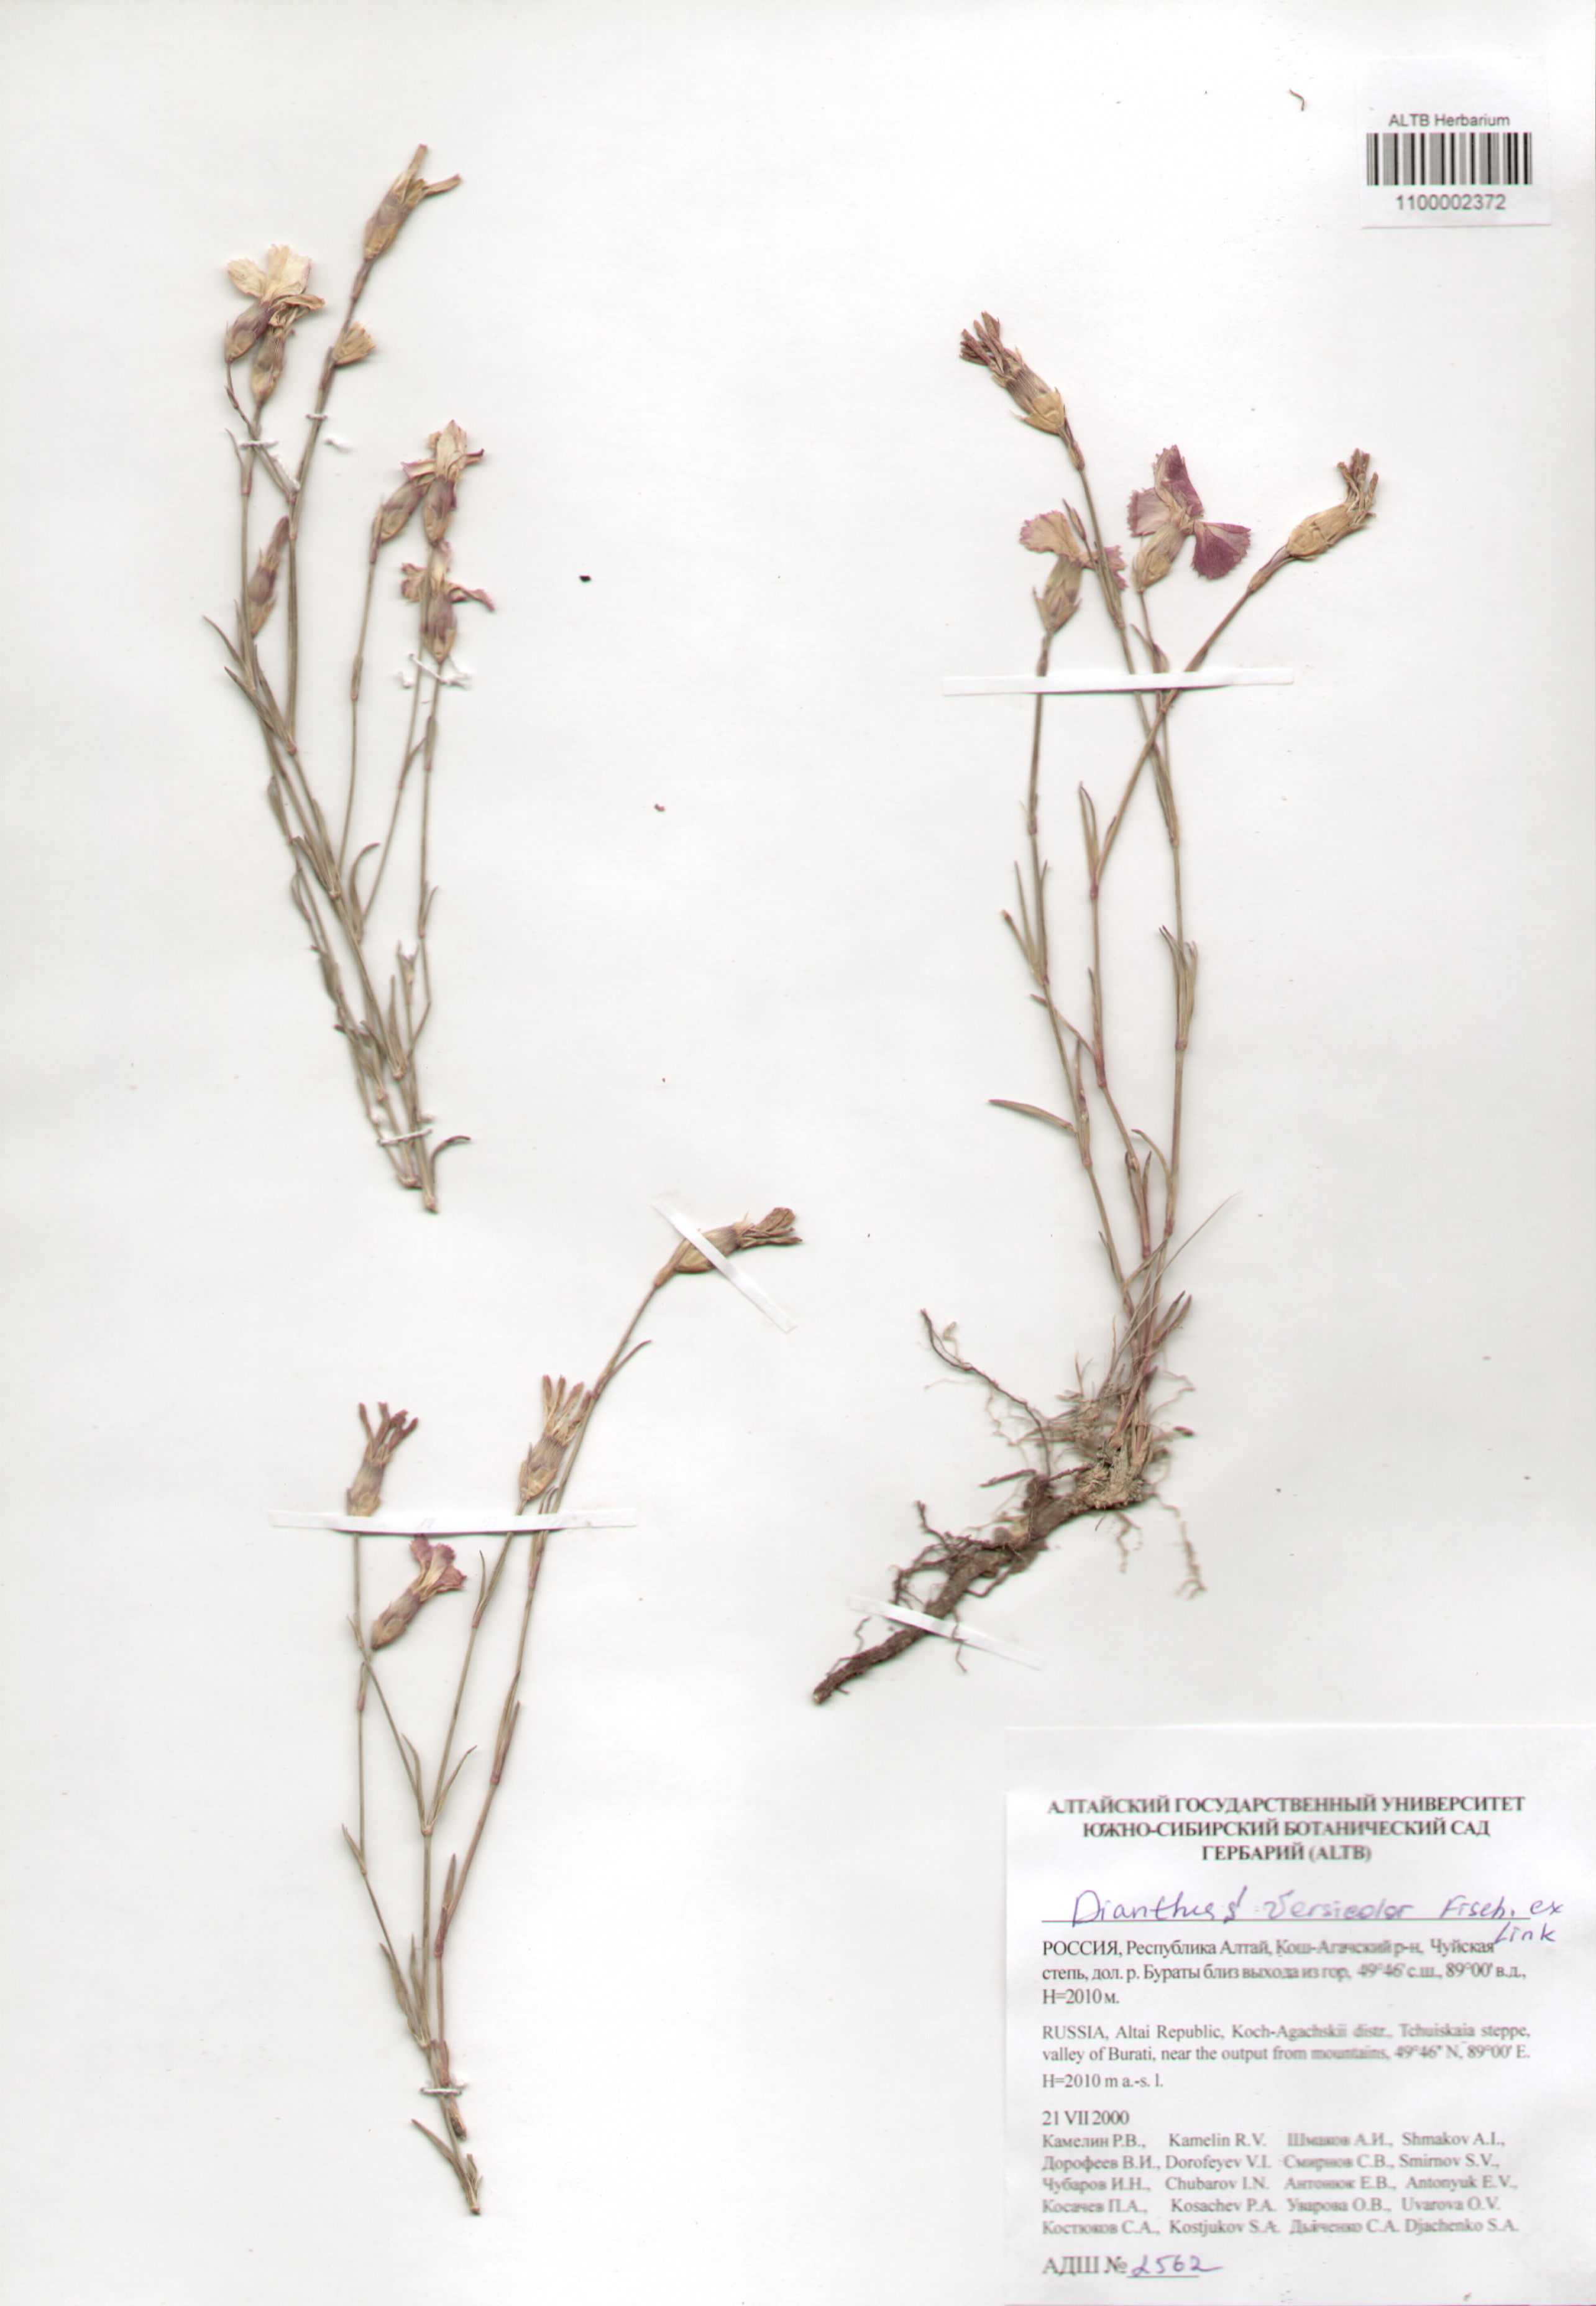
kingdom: Plantae
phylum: Tracheophyta
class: Magnoliopsida
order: Caryophyllales
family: Caryophyllaceae
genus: Dianthus
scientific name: Dianthus chinensis
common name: Rainbow pink
